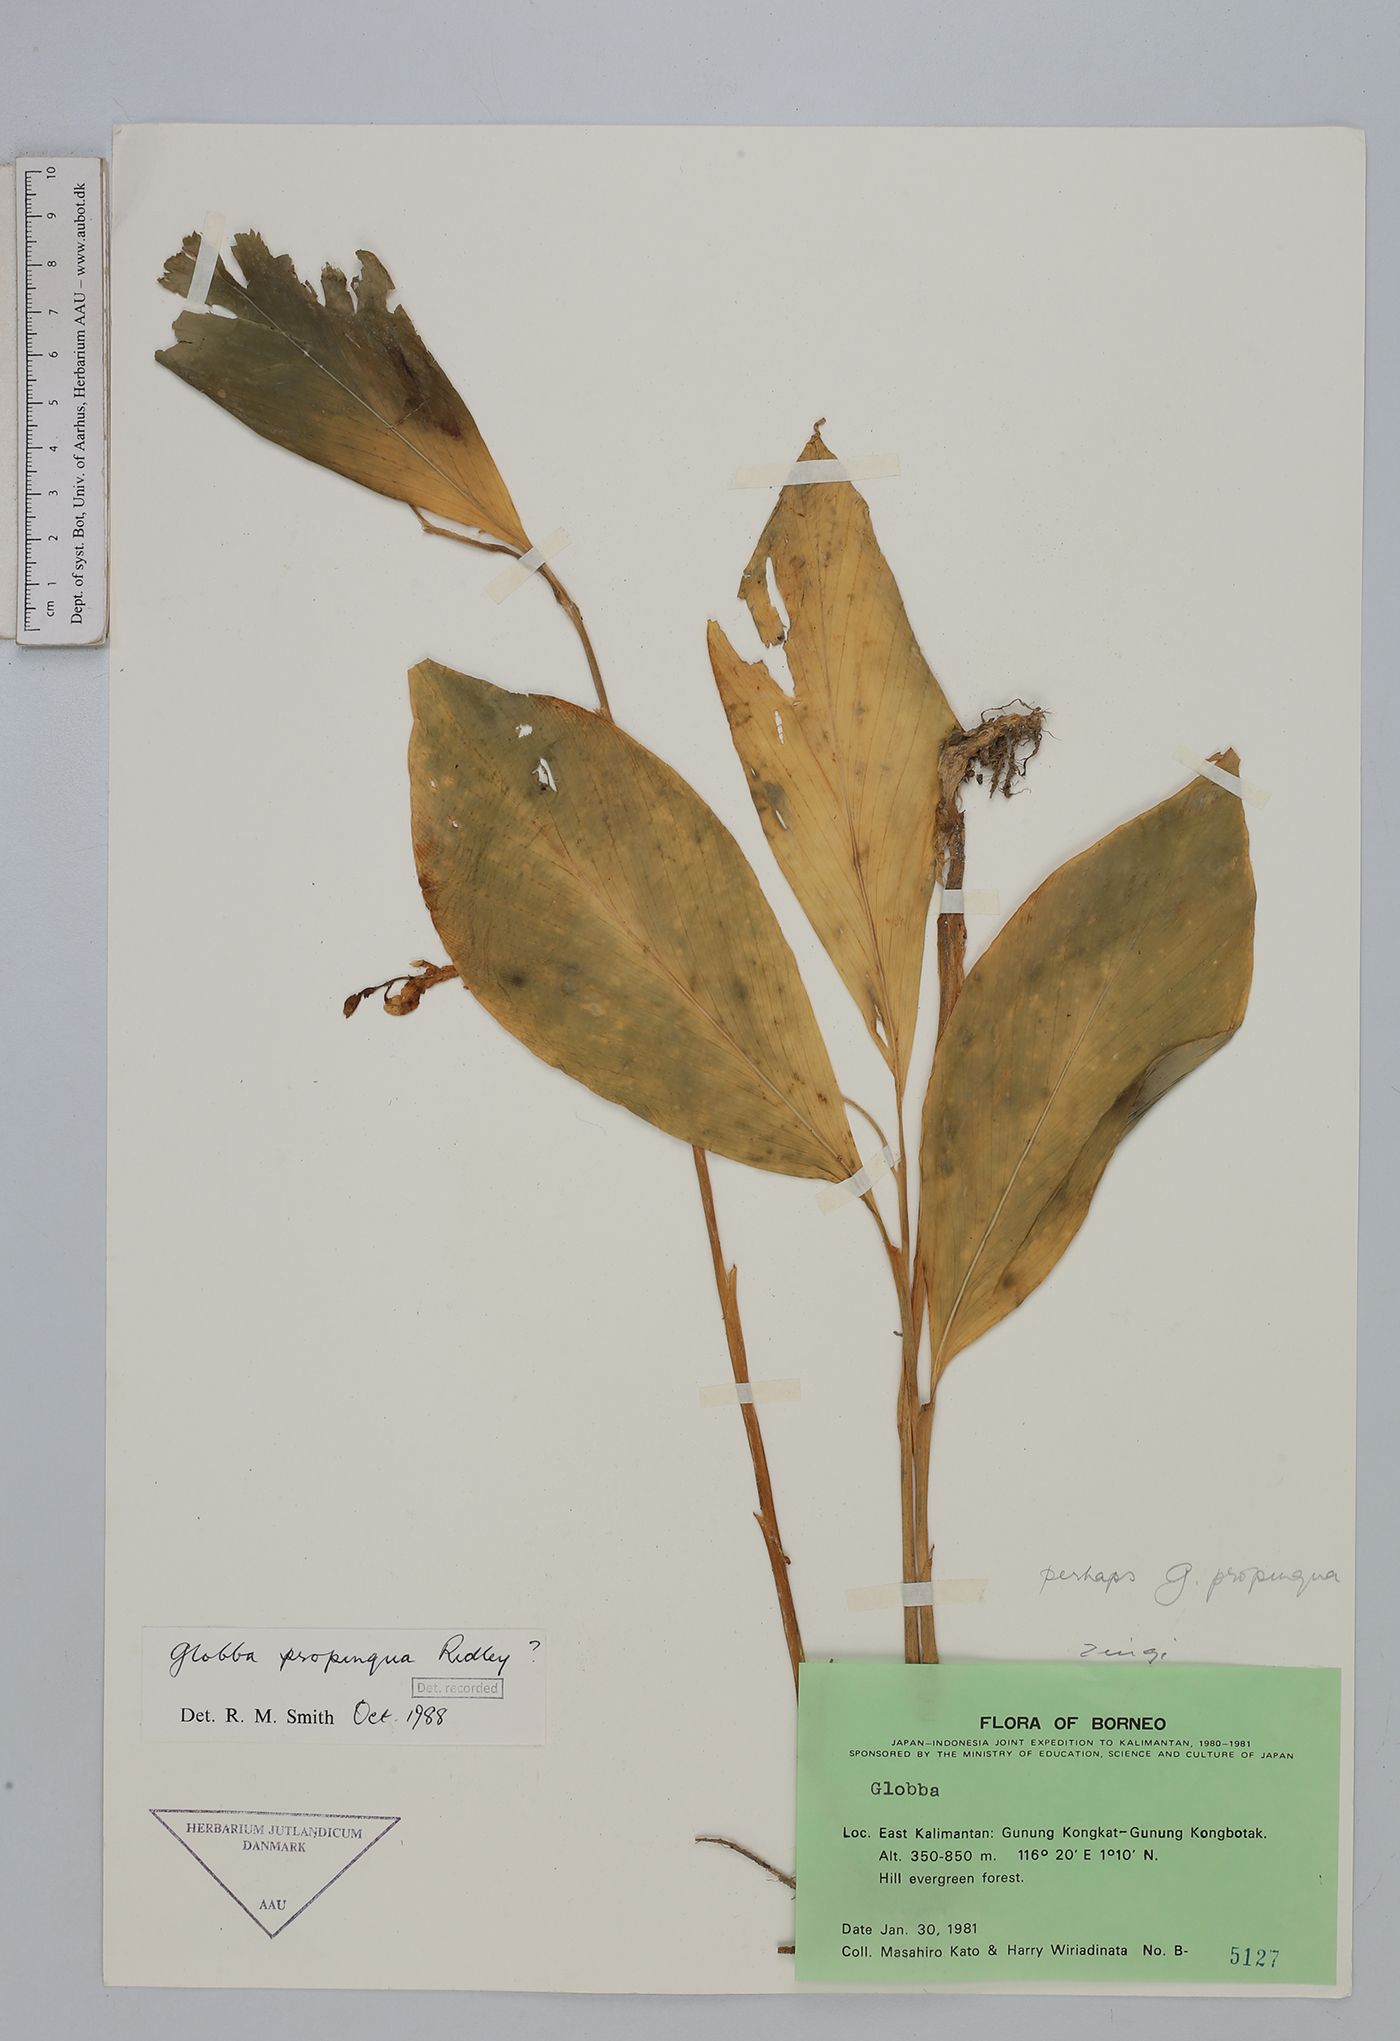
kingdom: Plantae
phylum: Tracheophyta
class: Liliopsida
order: Zingiberales
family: Zingiberaceae
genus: Globba
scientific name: Globba propinqua
